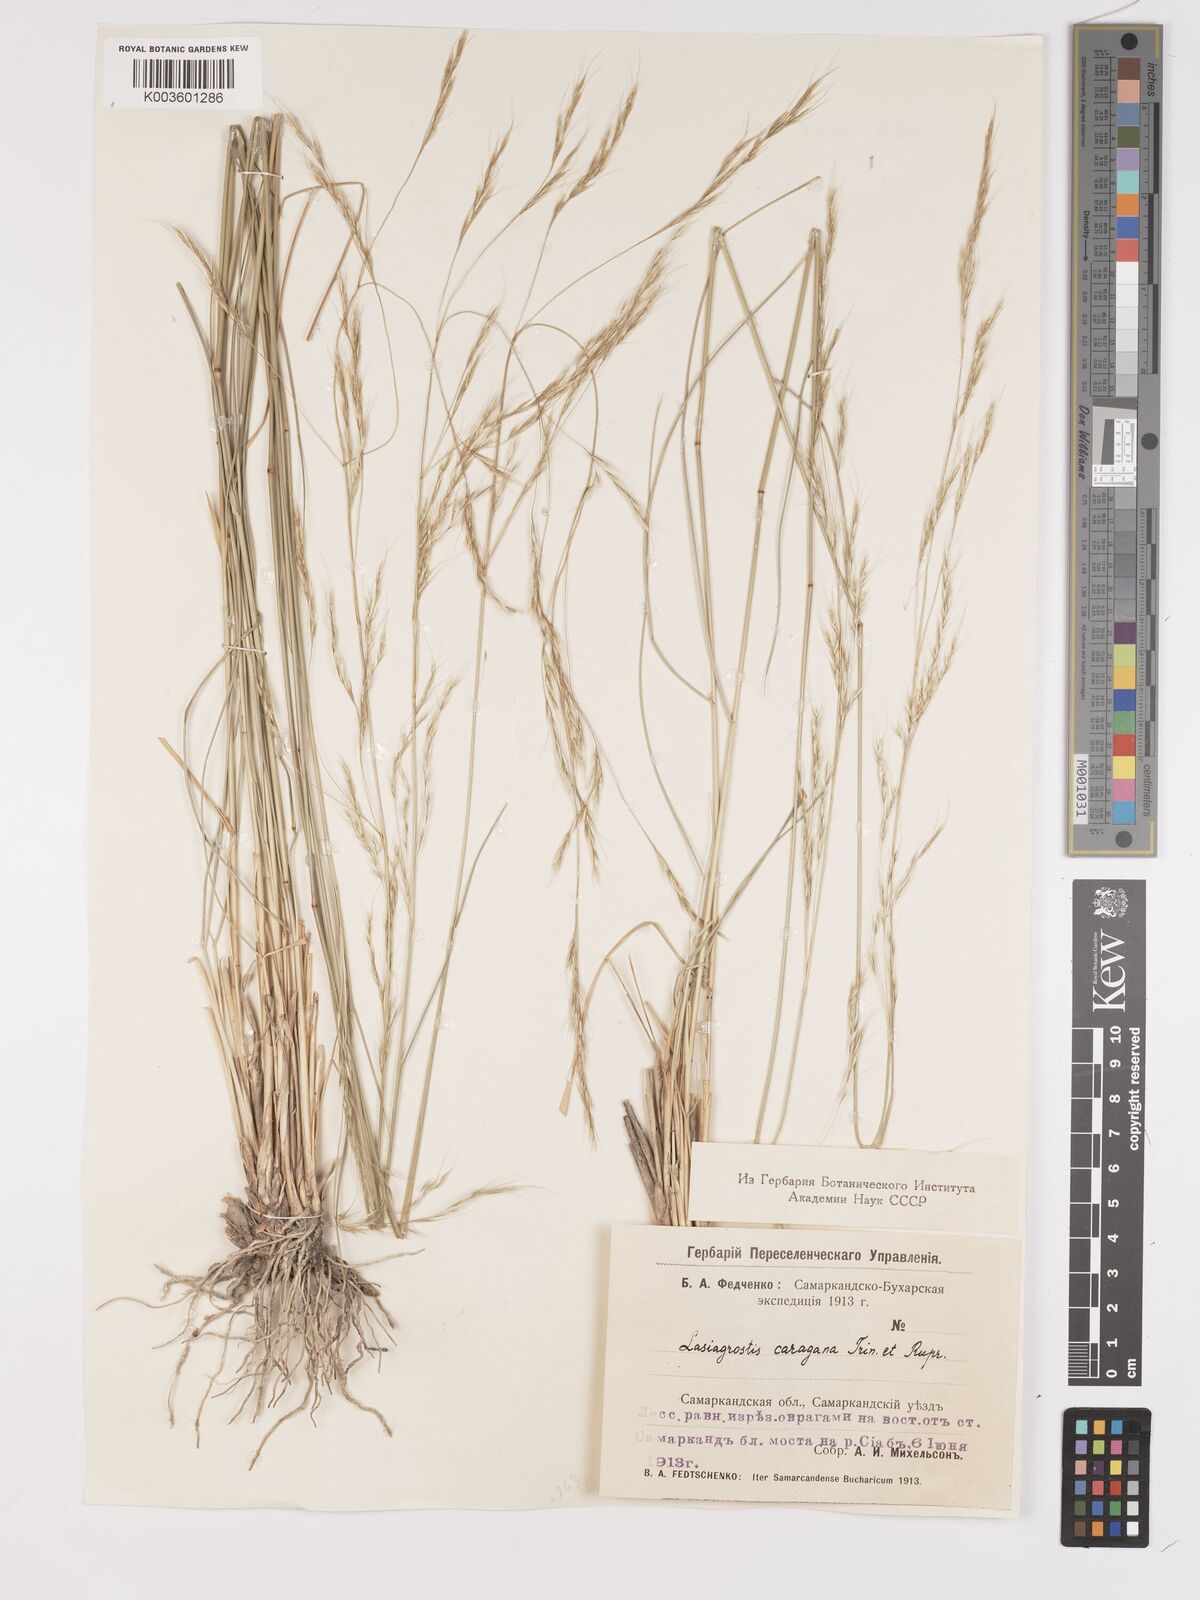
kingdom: Plantae
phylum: Tracheophyta
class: Liliopsida
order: Poales
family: Poaceae
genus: Stipa
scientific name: Stipa conferta
